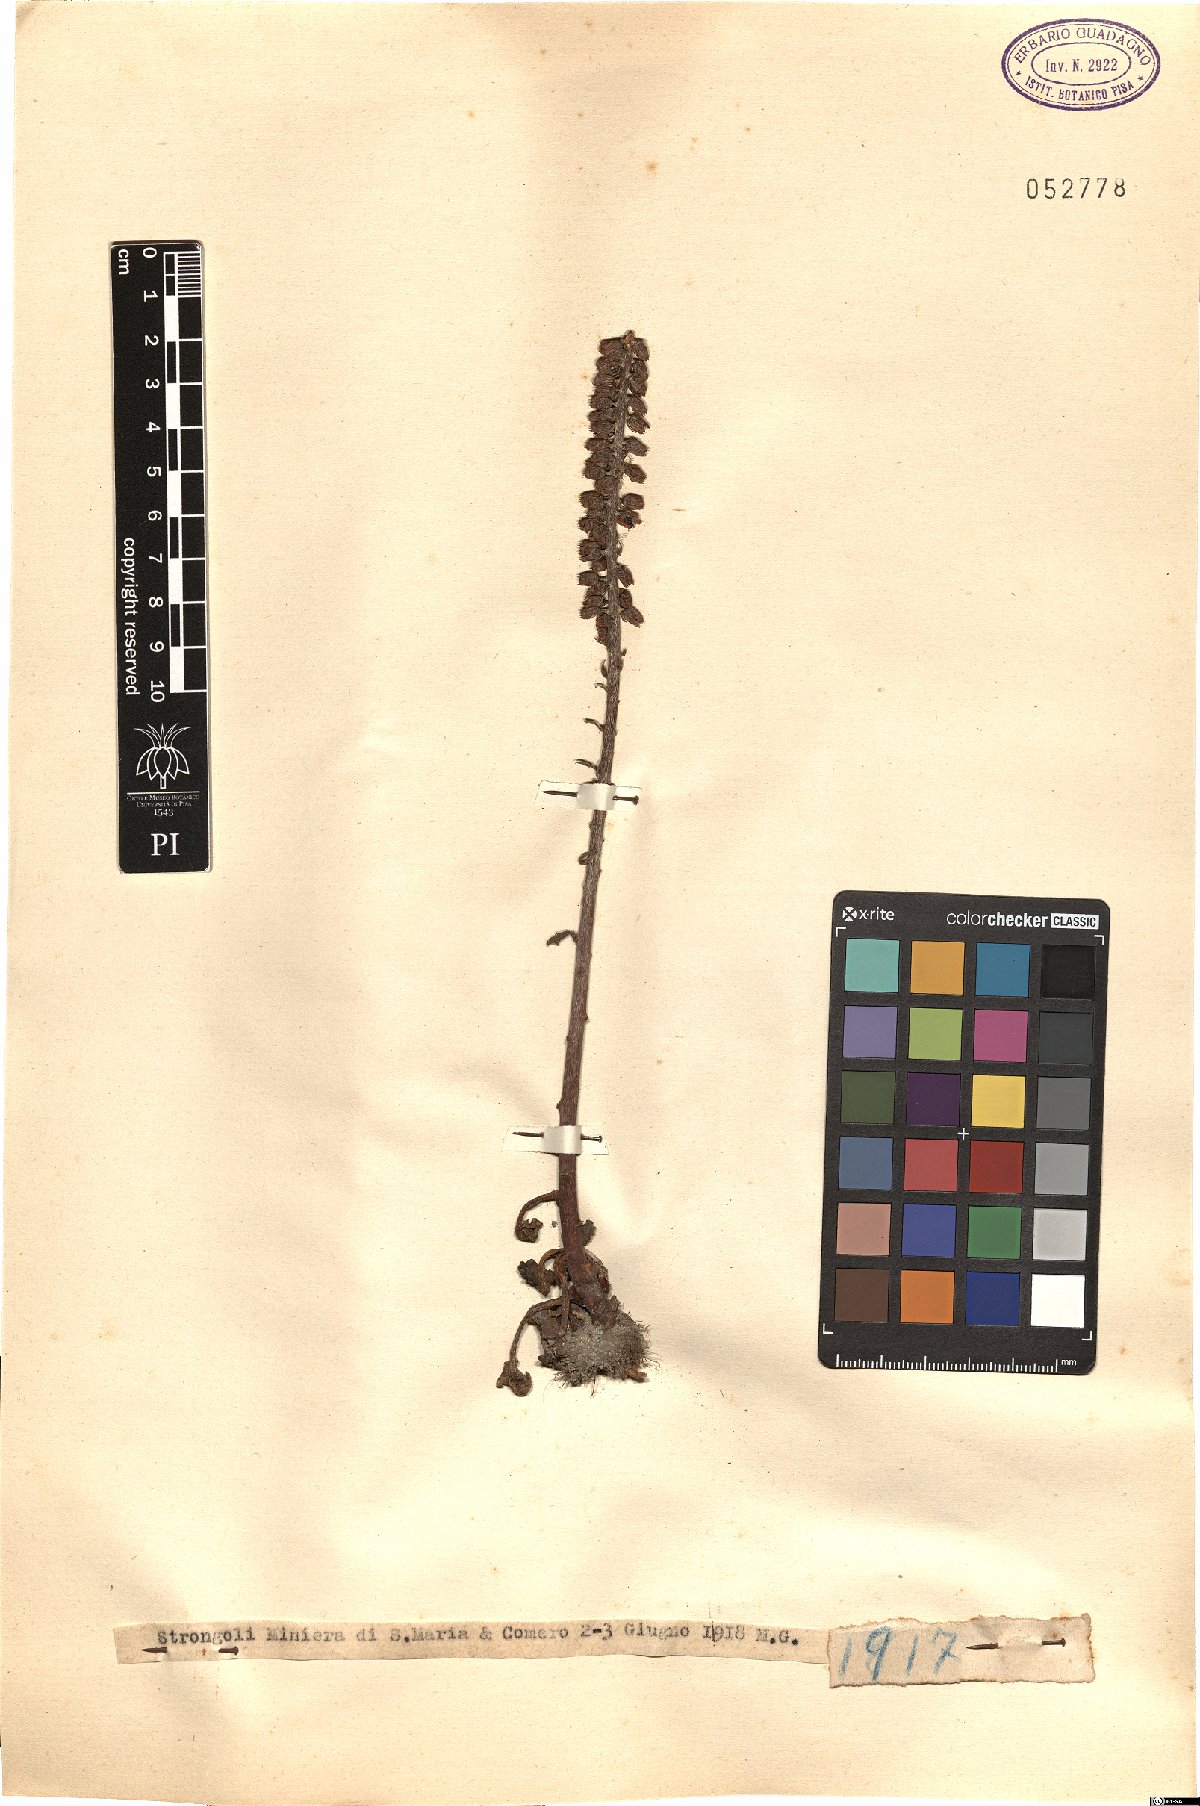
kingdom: Plantae
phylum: Tracheophyta
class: Magnoliopsida
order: Saxifragales
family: Crassulaceae
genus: Umbilicus
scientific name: Umbilicus
